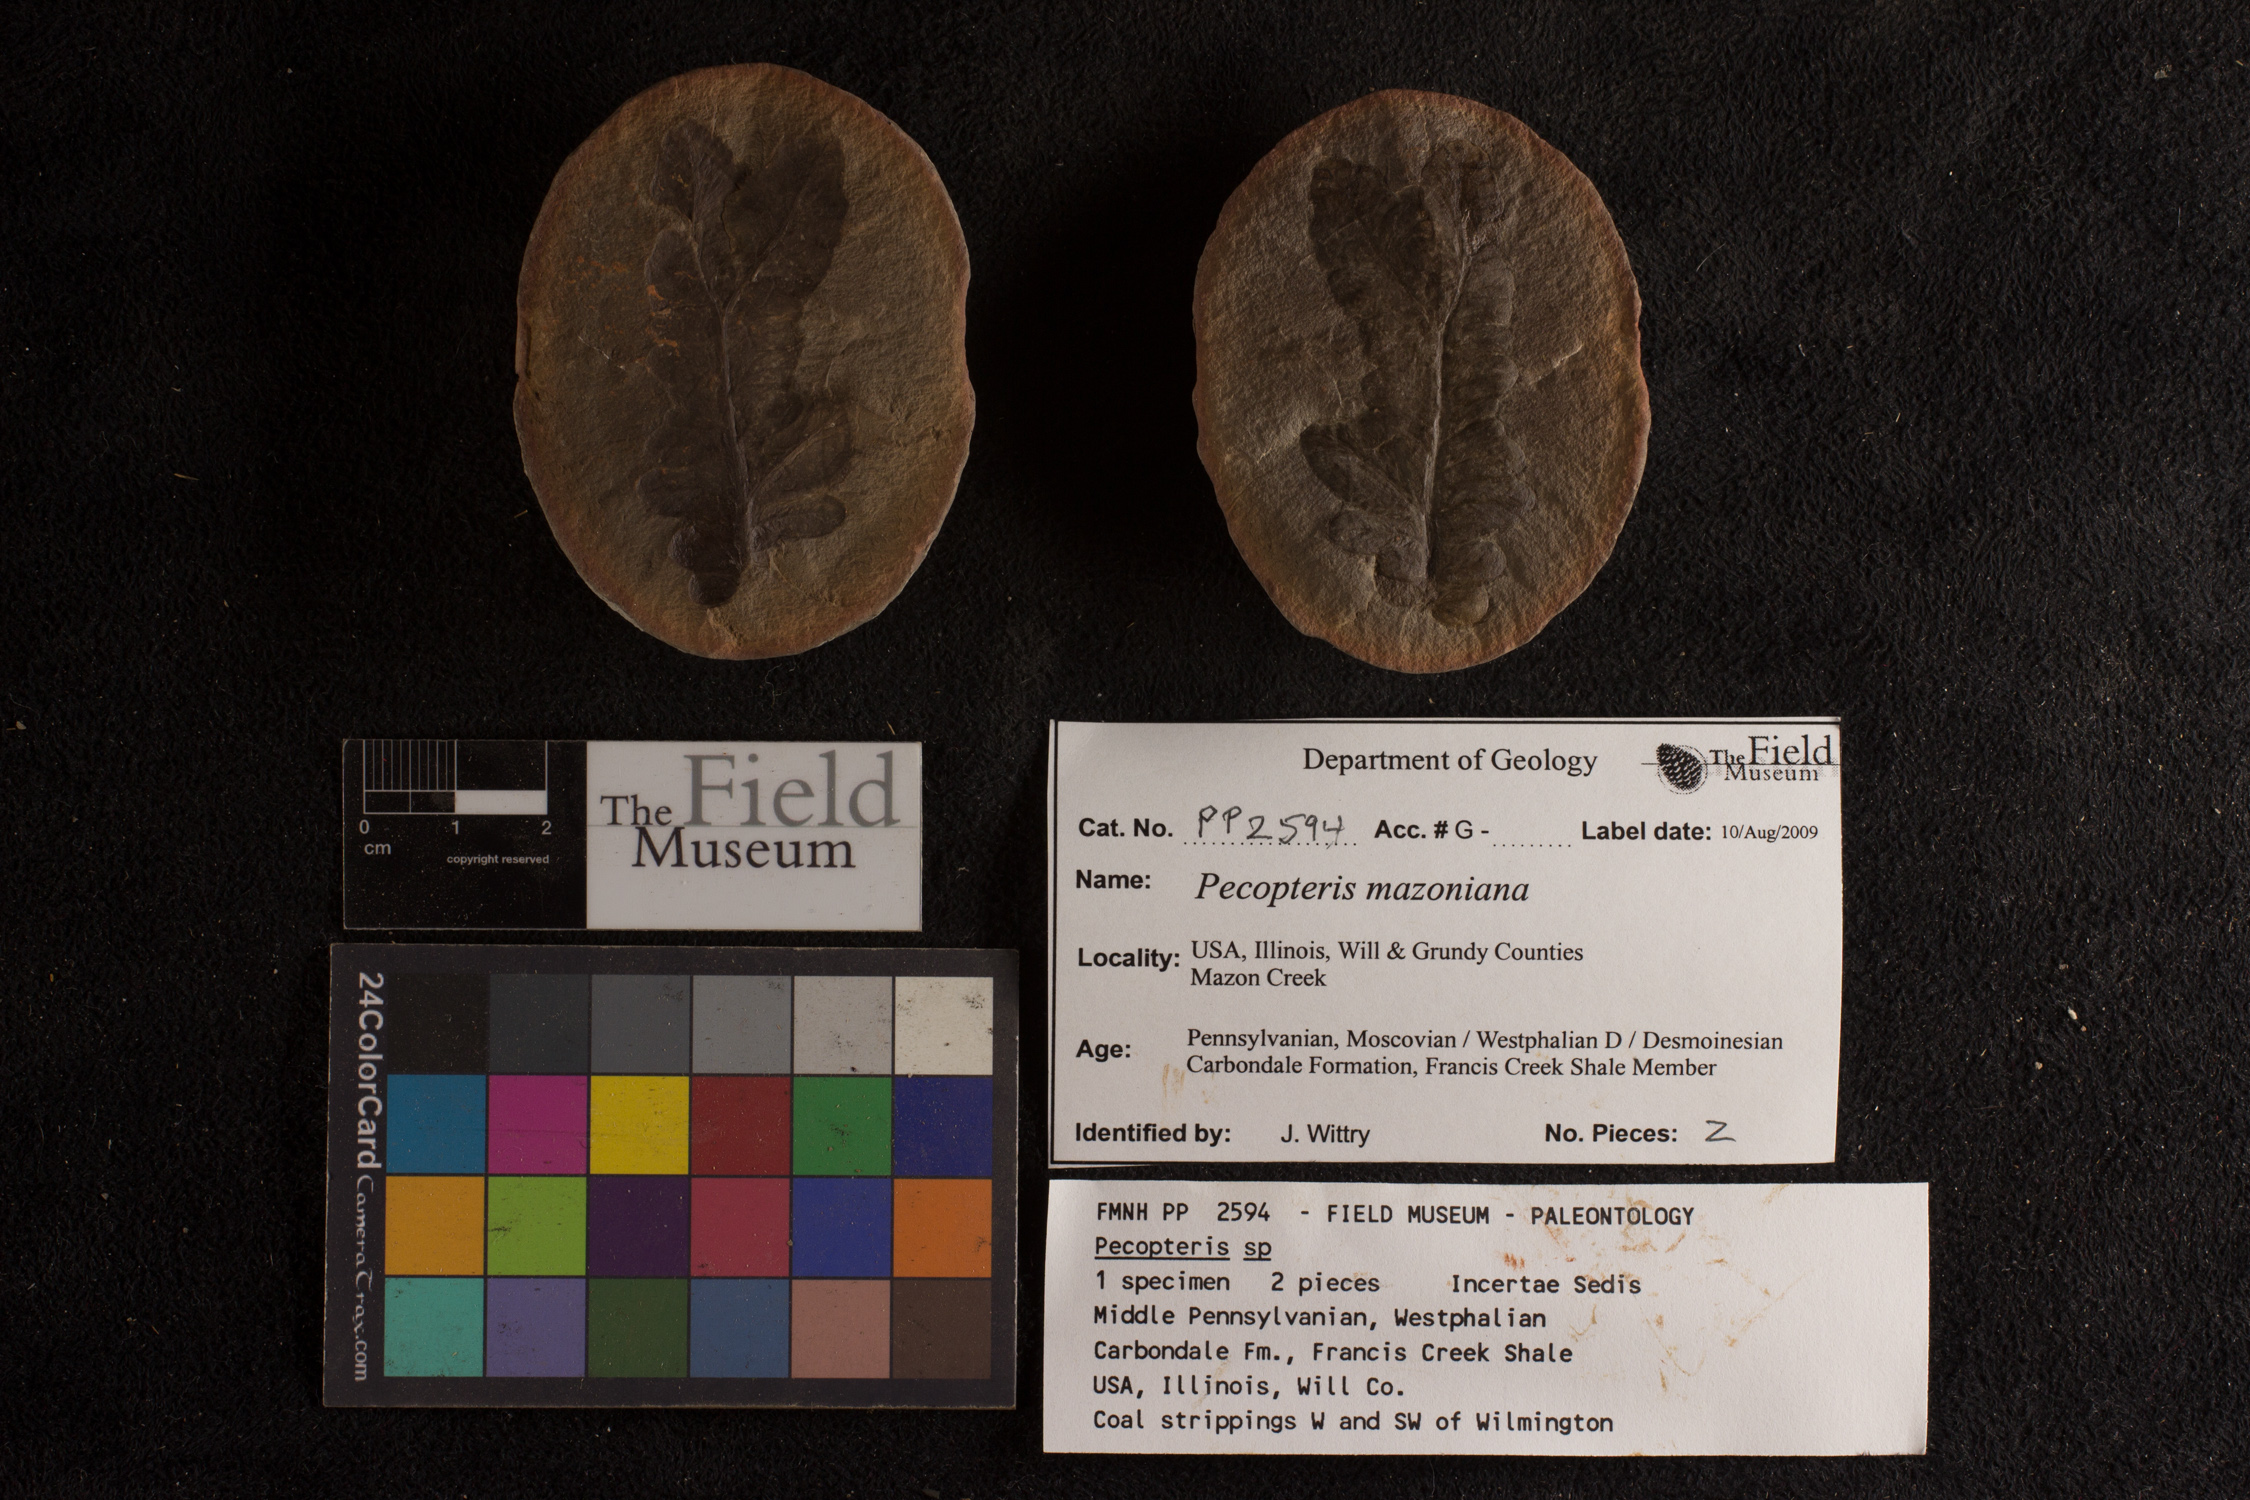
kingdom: Plantae
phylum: Tracheophyta
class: Polypodiopsida
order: Marattiales
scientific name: Marattiales
